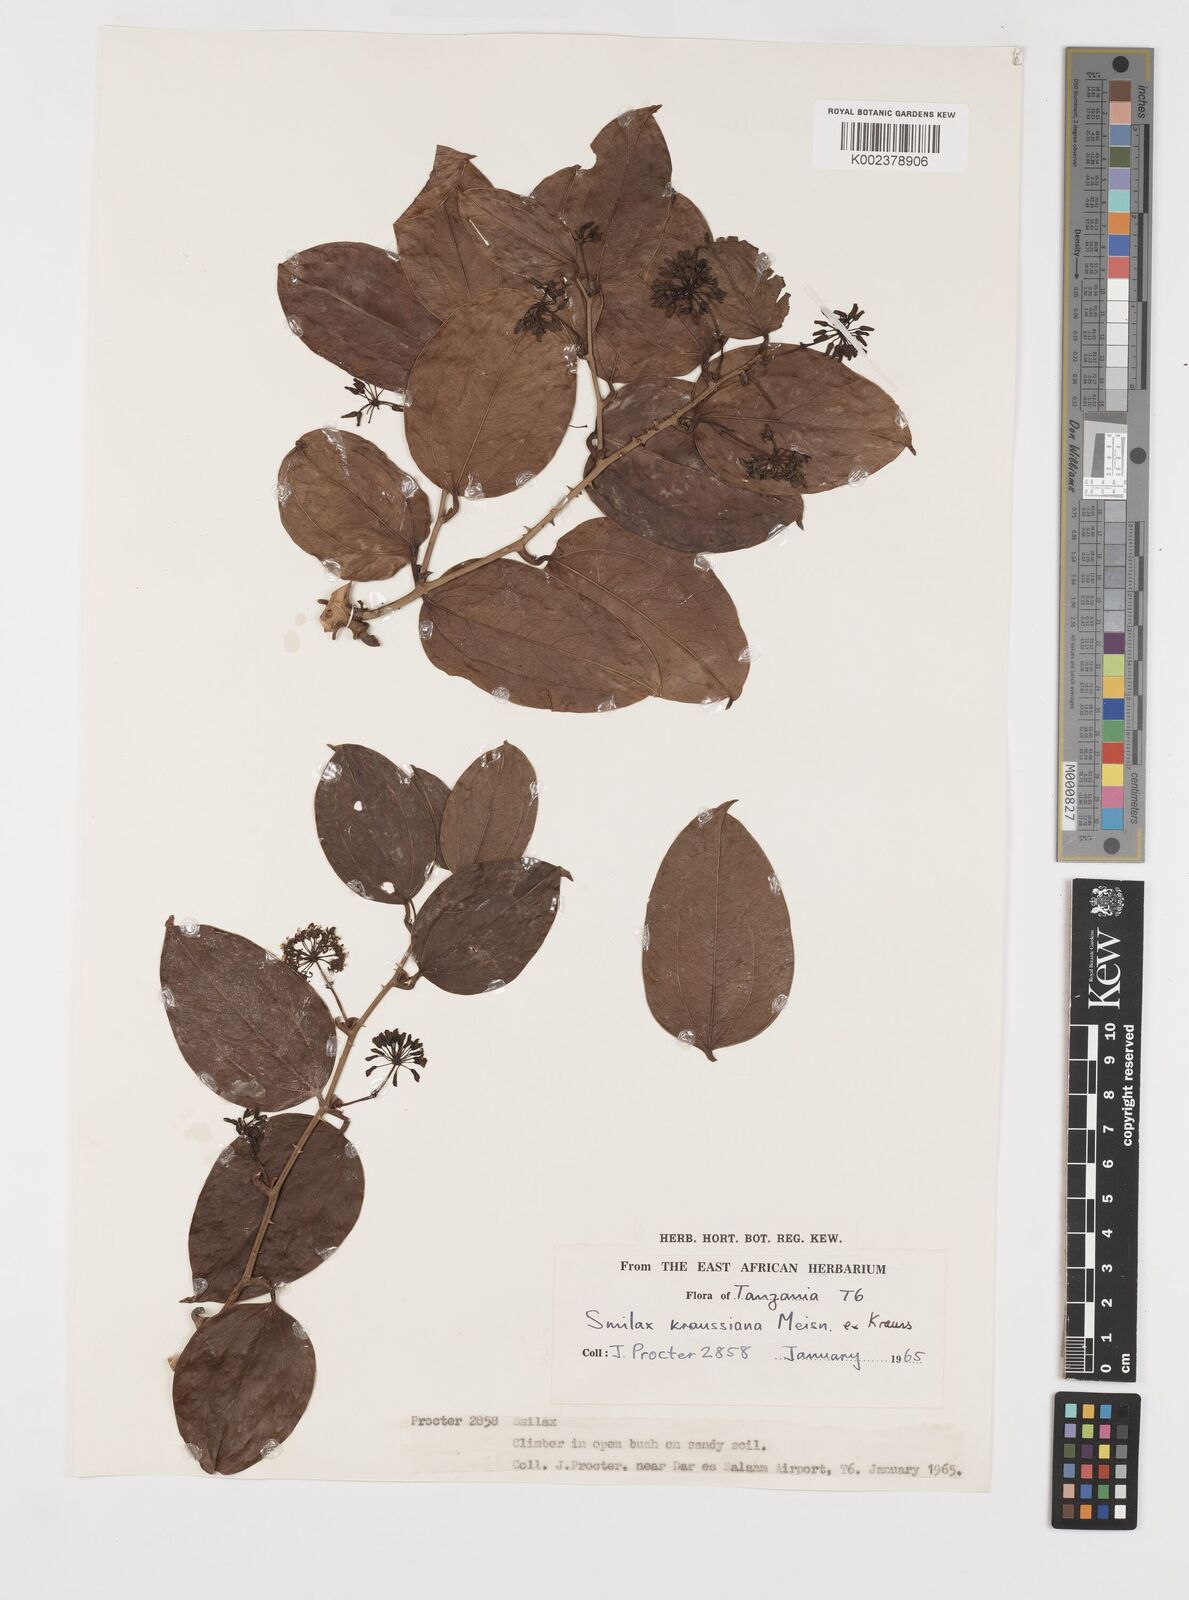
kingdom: Plantae
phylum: Tracheophyta
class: Liliopsida
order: Liliales
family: Smilacaceae
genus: Smilax
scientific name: Smilax anceps
